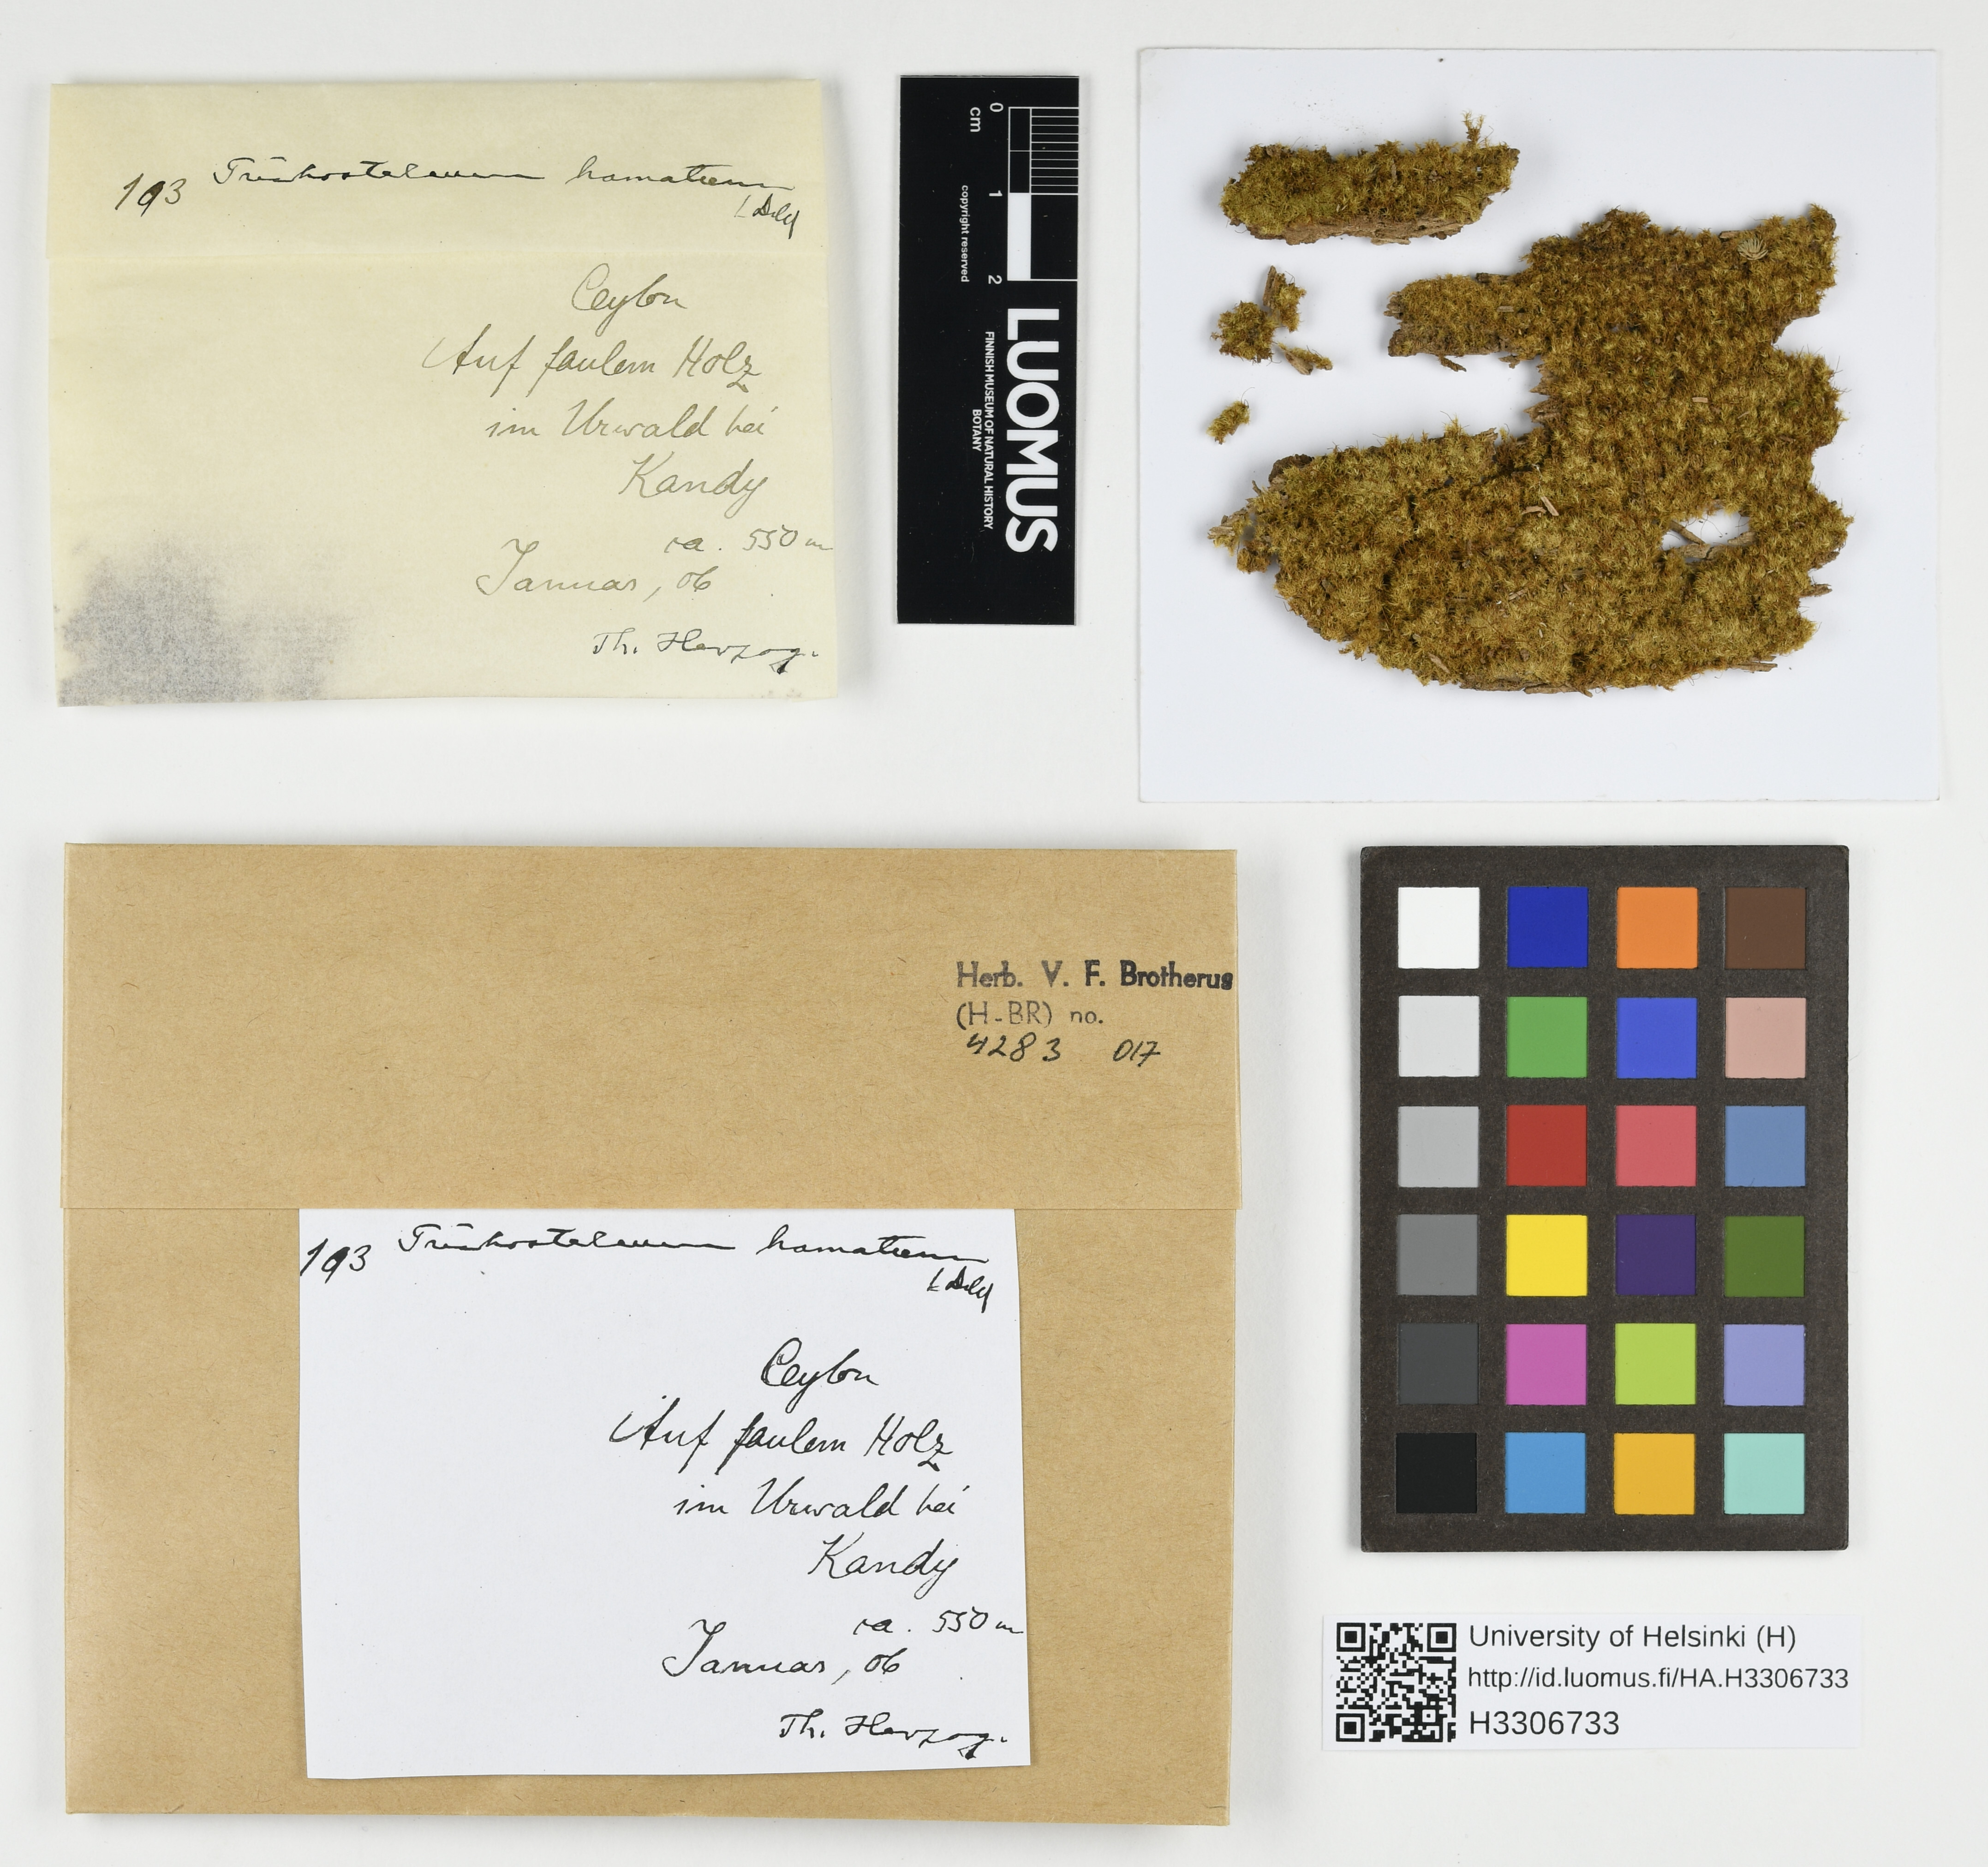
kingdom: Plantae
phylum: Bryophyta
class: Bryopsida
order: Hypnales
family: Sematophyllaceae
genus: Radulina
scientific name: Radulina borbonica
